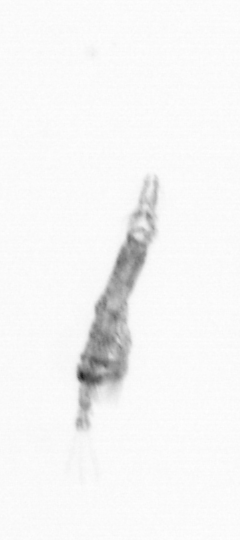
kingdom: Animalia
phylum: Arthropoda
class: Copepoda
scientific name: Copepoda
